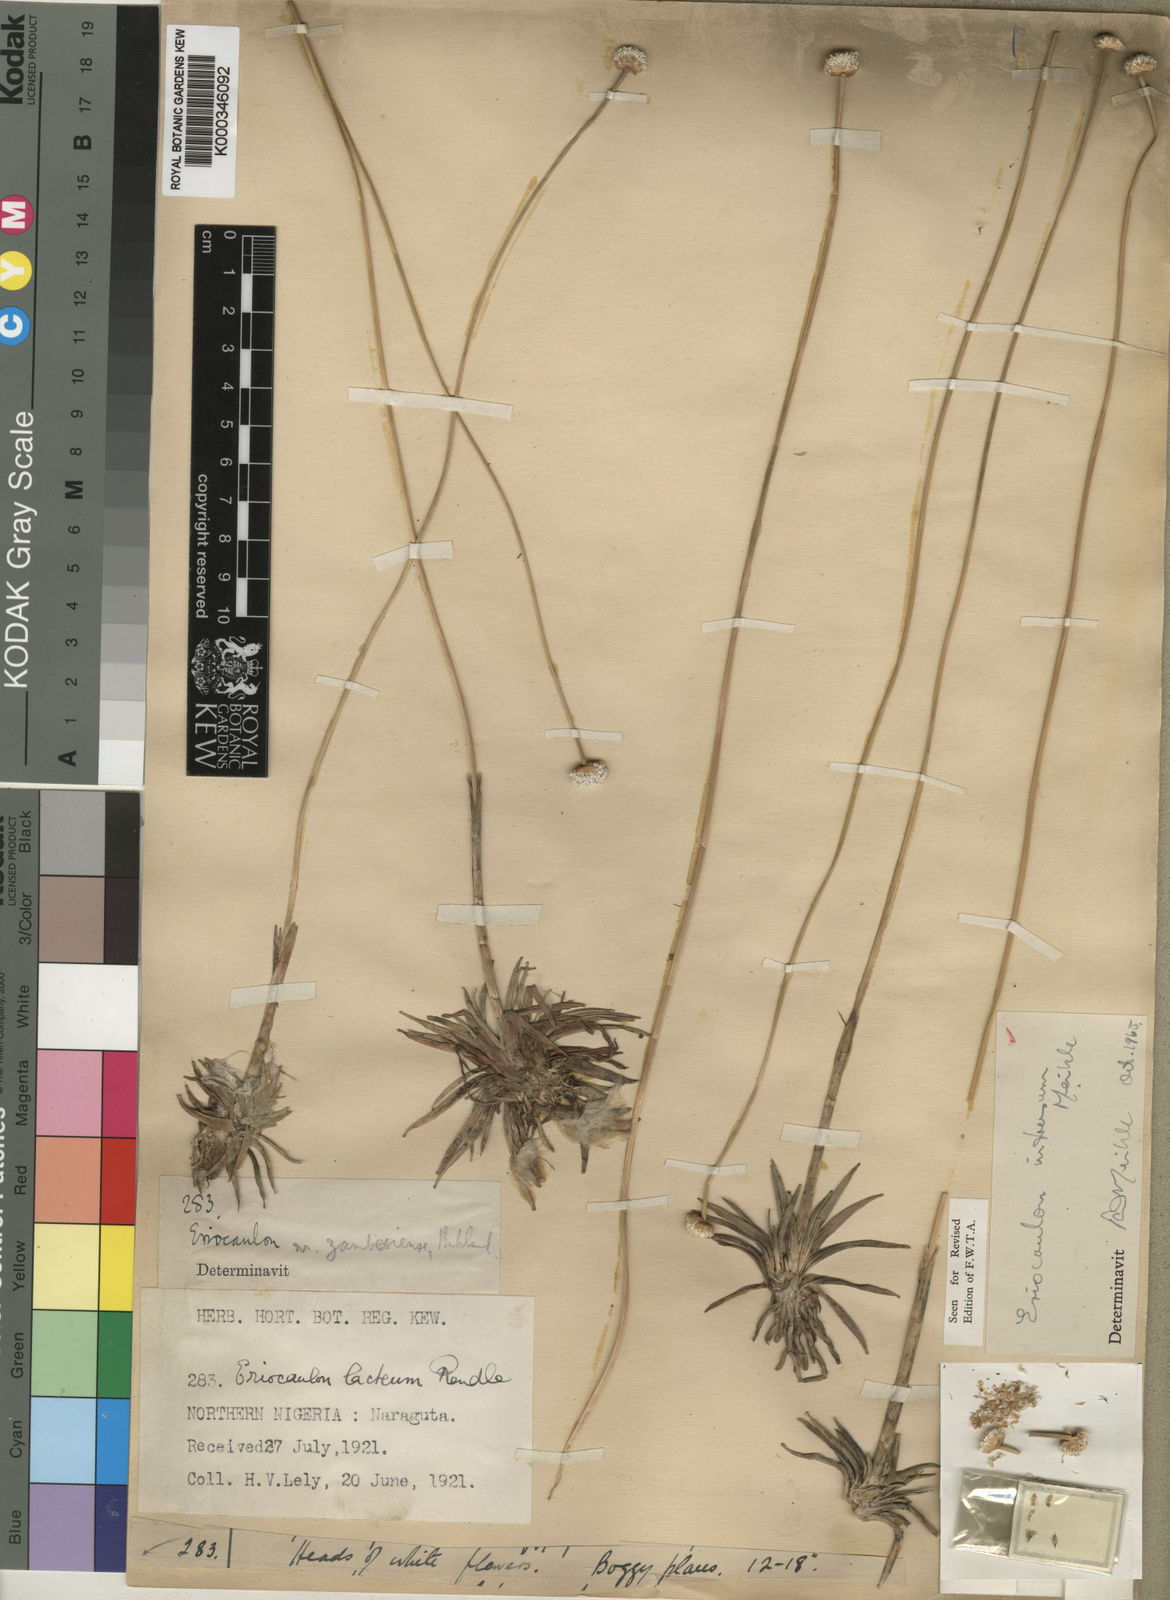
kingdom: Plantae
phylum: Tracheophyta
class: Liliopsida
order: Poales
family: Eriocaulaceae
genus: Eriocaulon
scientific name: Eriocaulon teusczii
